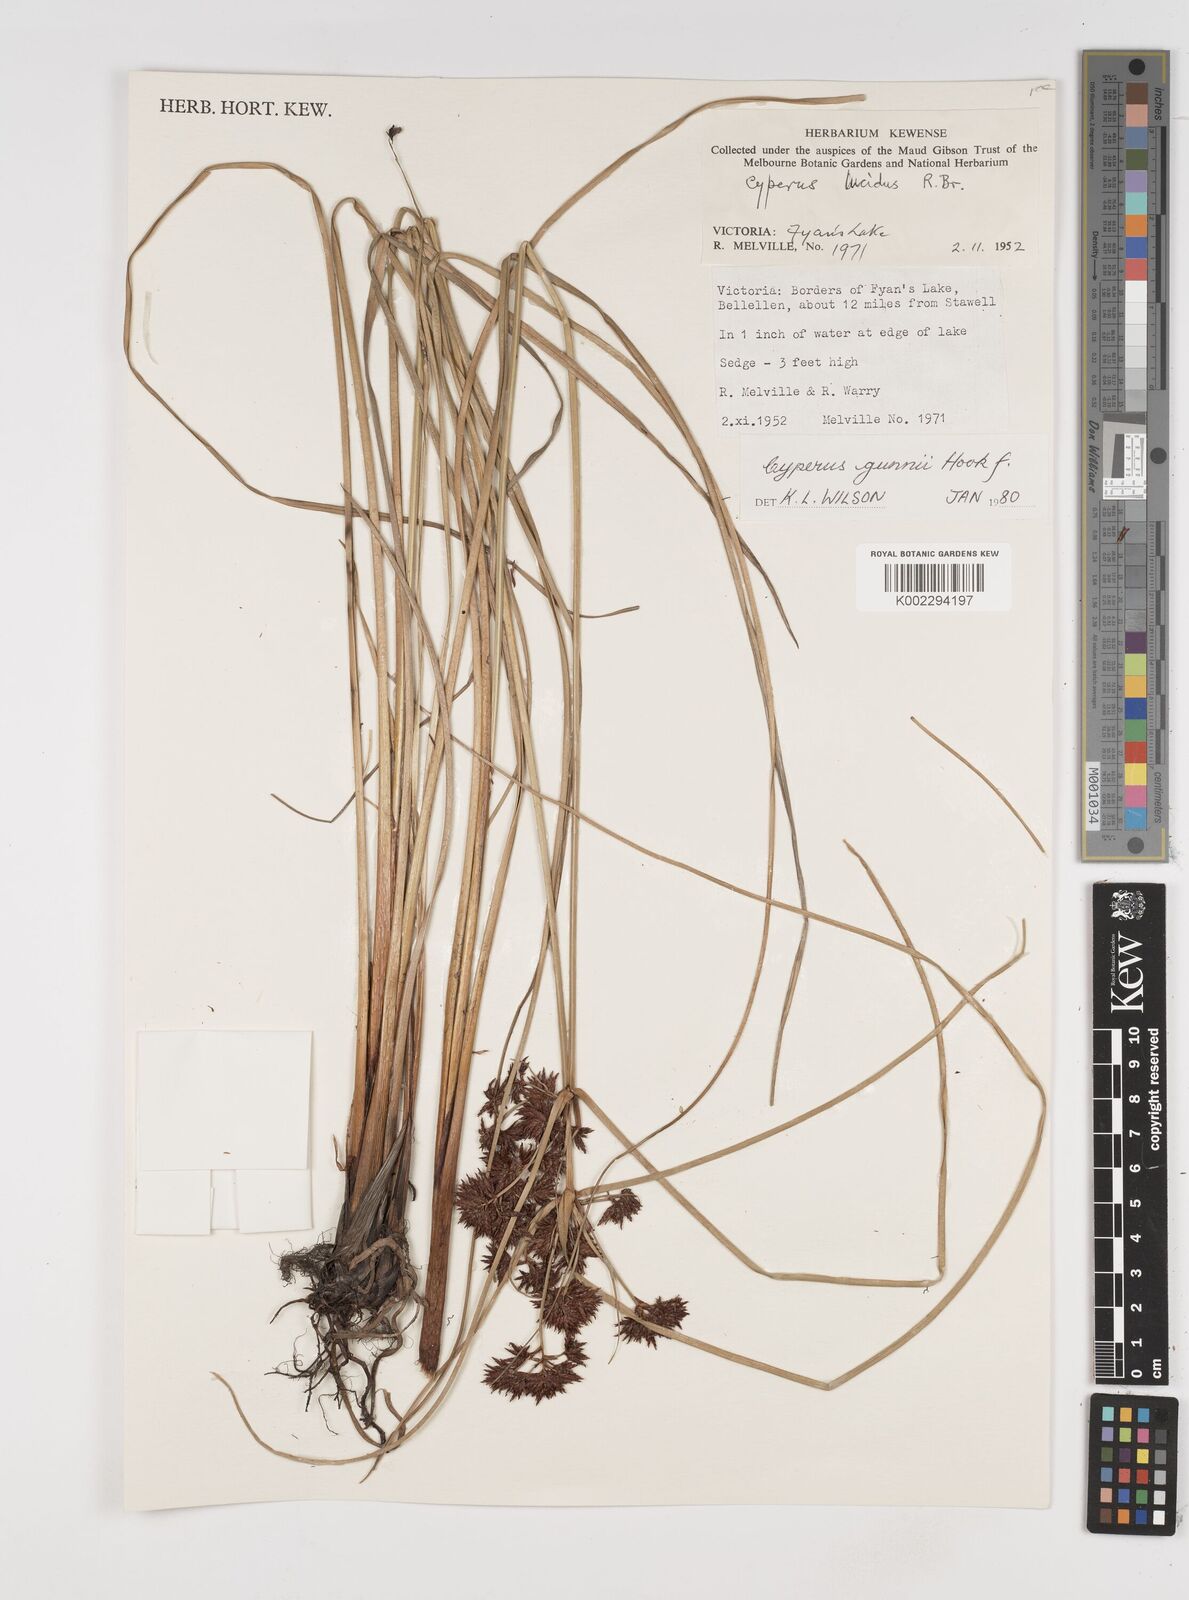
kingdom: Plantae
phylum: Tracheophyta
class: Liliopsida
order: Poales
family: Cyperaceae
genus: Cyperus
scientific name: Cyperus gunnii
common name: Flecked flat-sedge
